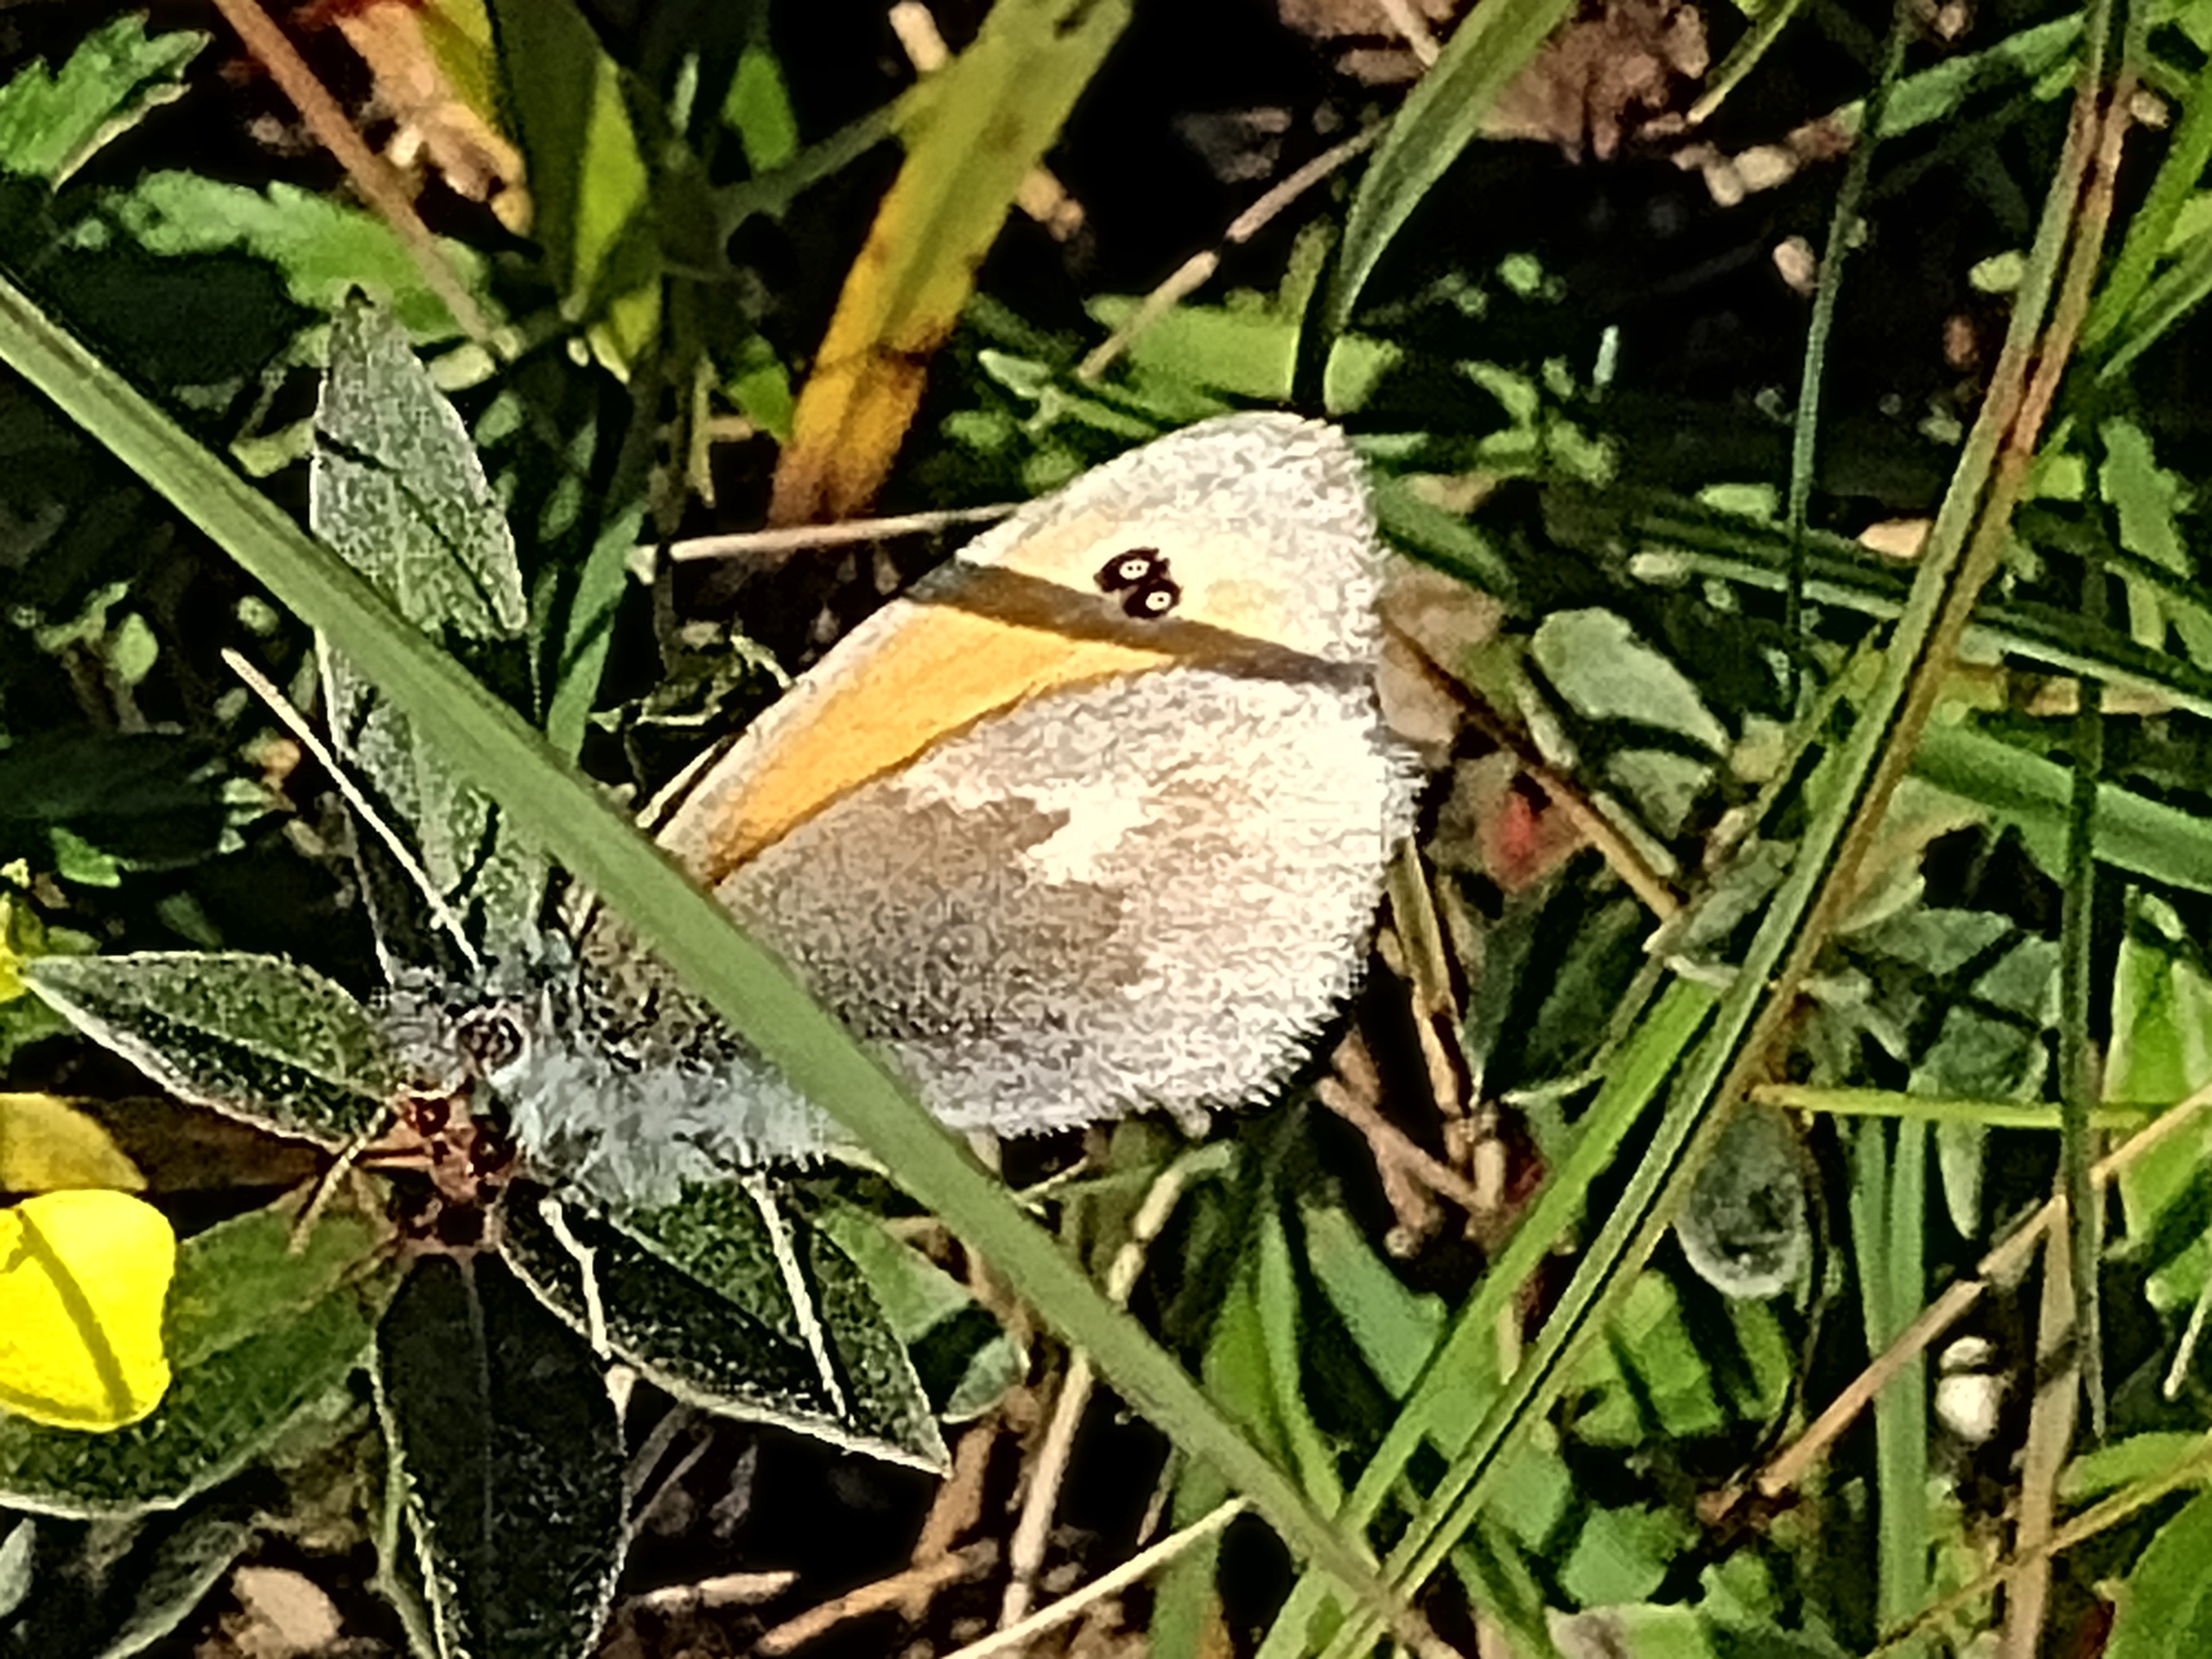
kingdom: Animalia
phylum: Arthropoda
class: Insecta
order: Lepidoptera
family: Nymphalidae
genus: Coenonympha
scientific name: Coenonympha pamphilus
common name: Okkergul randøje
